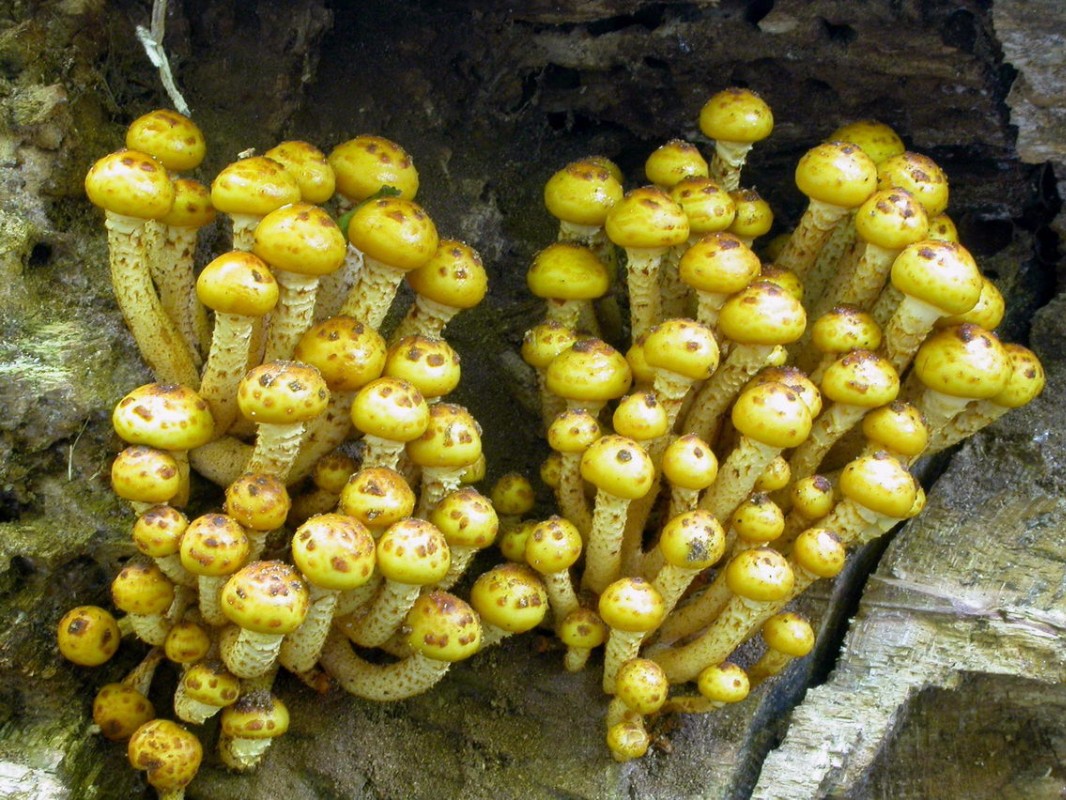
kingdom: Fungi
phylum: Basidiomycota
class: Agaricomycetes
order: Agaricales
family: Strophariaceae
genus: Pholiota
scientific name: Pholiota adiposa
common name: højtsiddende skælhat
